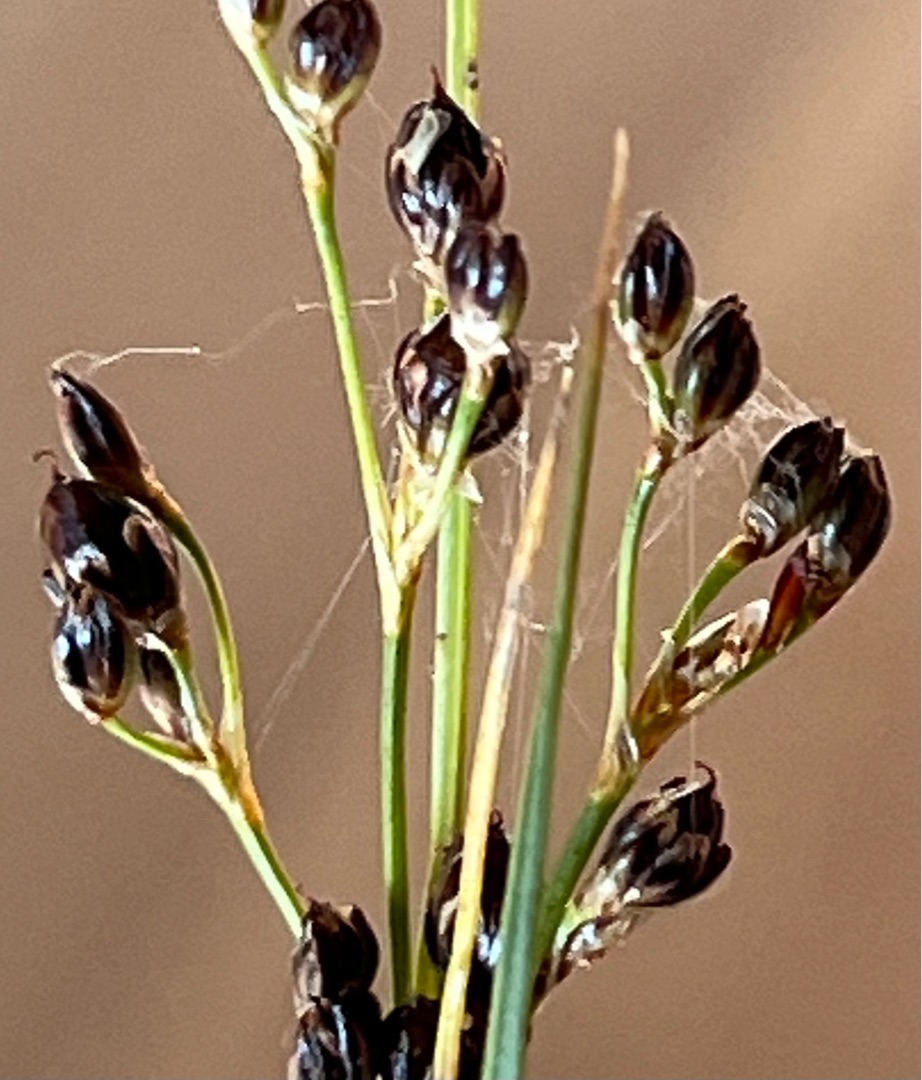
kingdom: Plantae
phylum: Tracheophyta
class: Liliopsida
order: Poales
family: Juncaceae
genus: Juncus
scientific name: Juncus compressus
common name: Fladstrået siv
